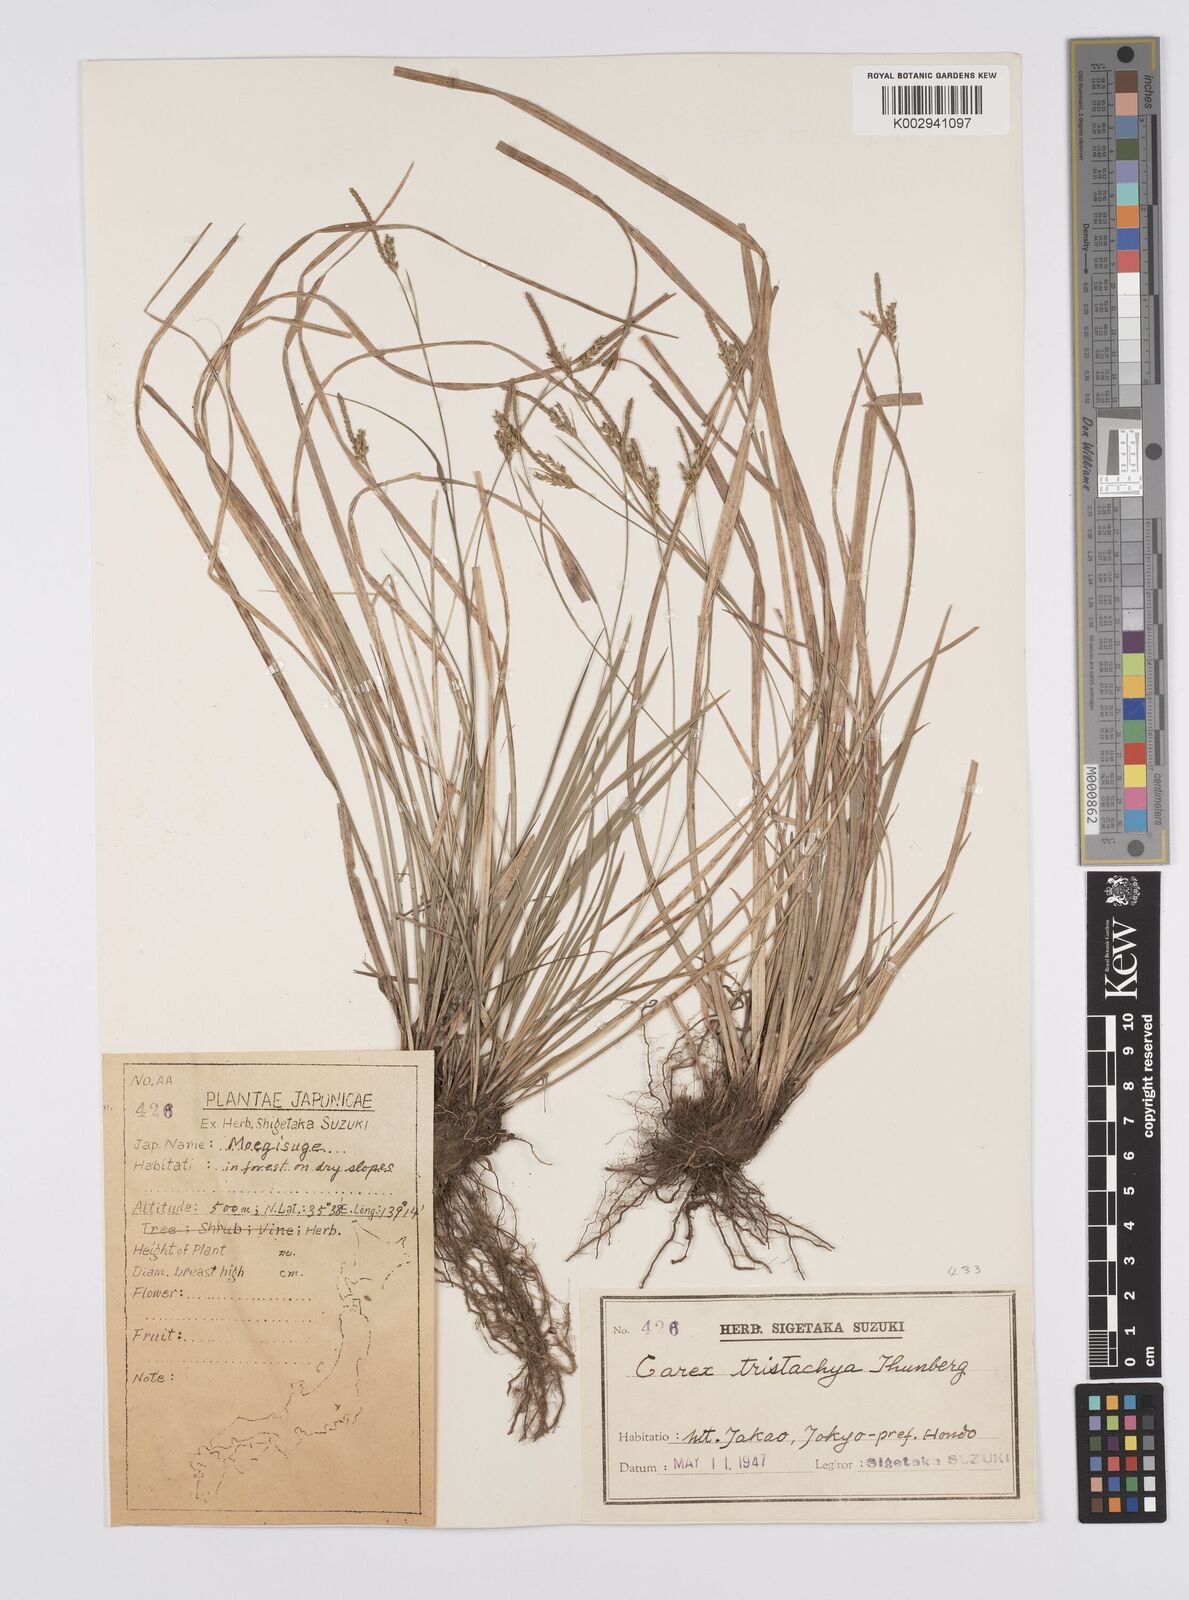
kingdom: Plantae
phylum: Tracheophyta
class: Liliopsida
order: Poales
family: Cyperaceae
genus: Carex
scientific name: Carex tristachya
